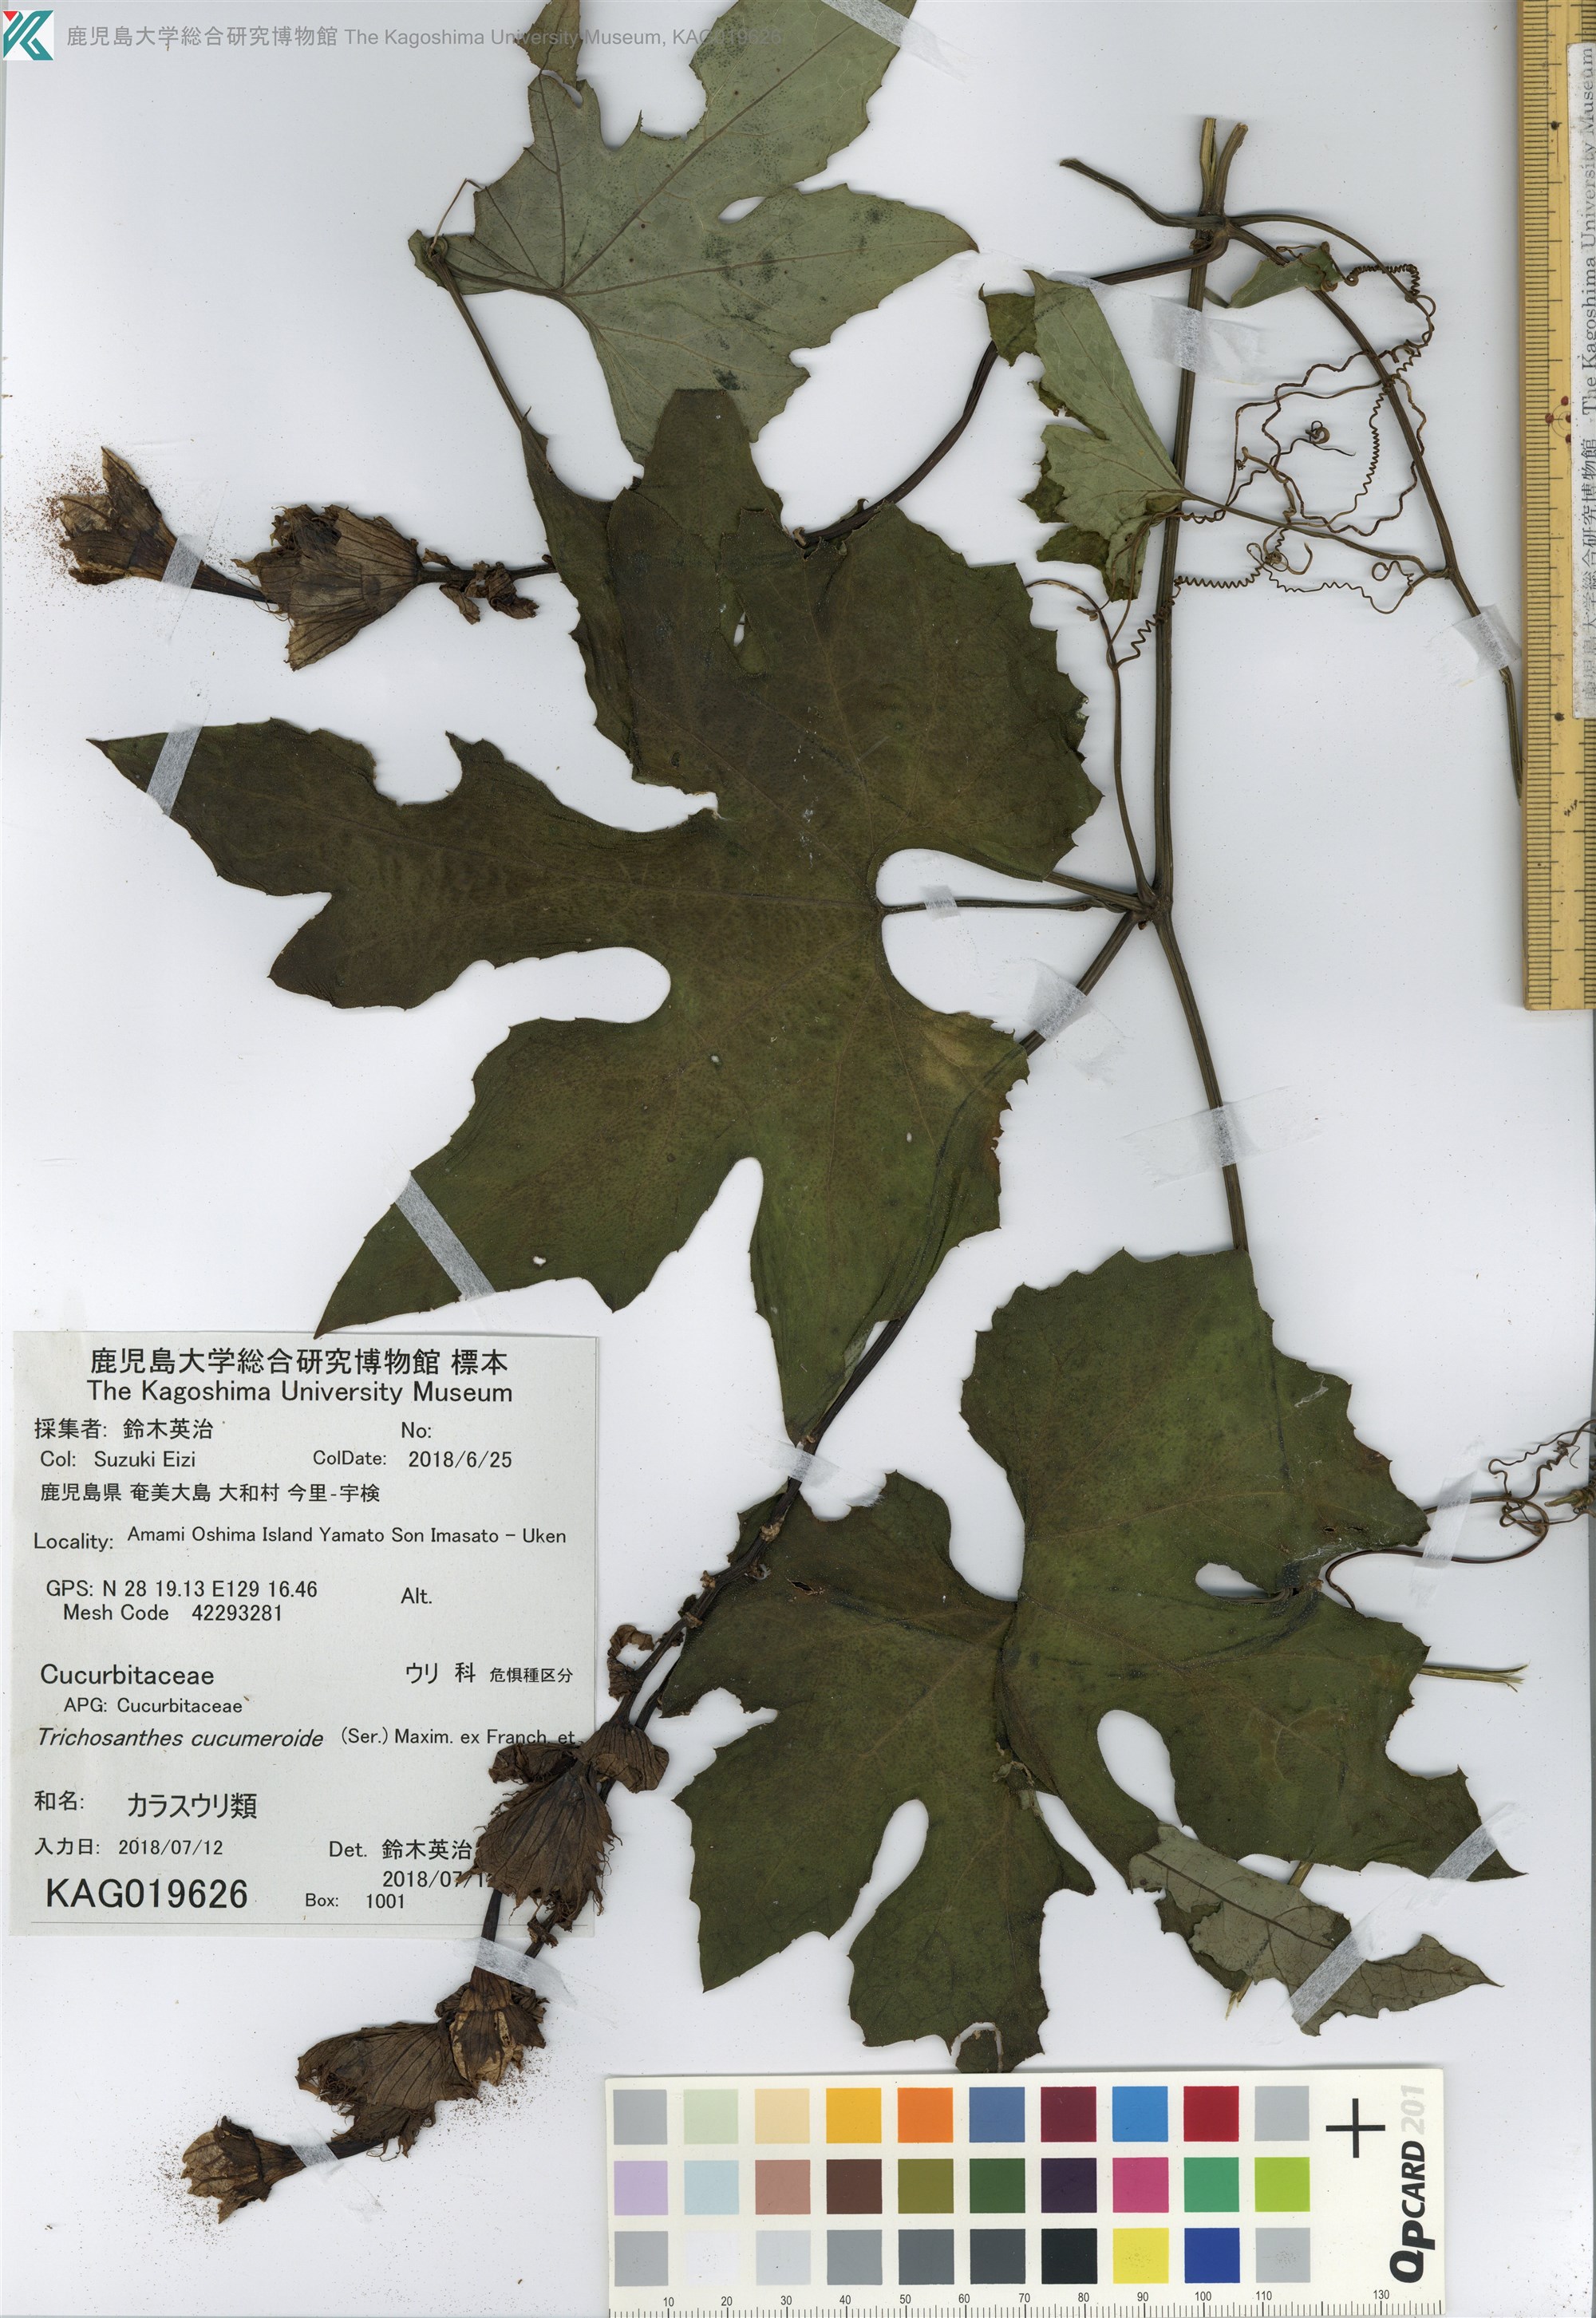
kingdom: Plantae
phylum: Tracheophyta
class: Magnoliopsida
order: Cucurbitales
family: Cucurbitaceae
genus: Trichosanthes
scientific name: Trichosanthes laceribractea
